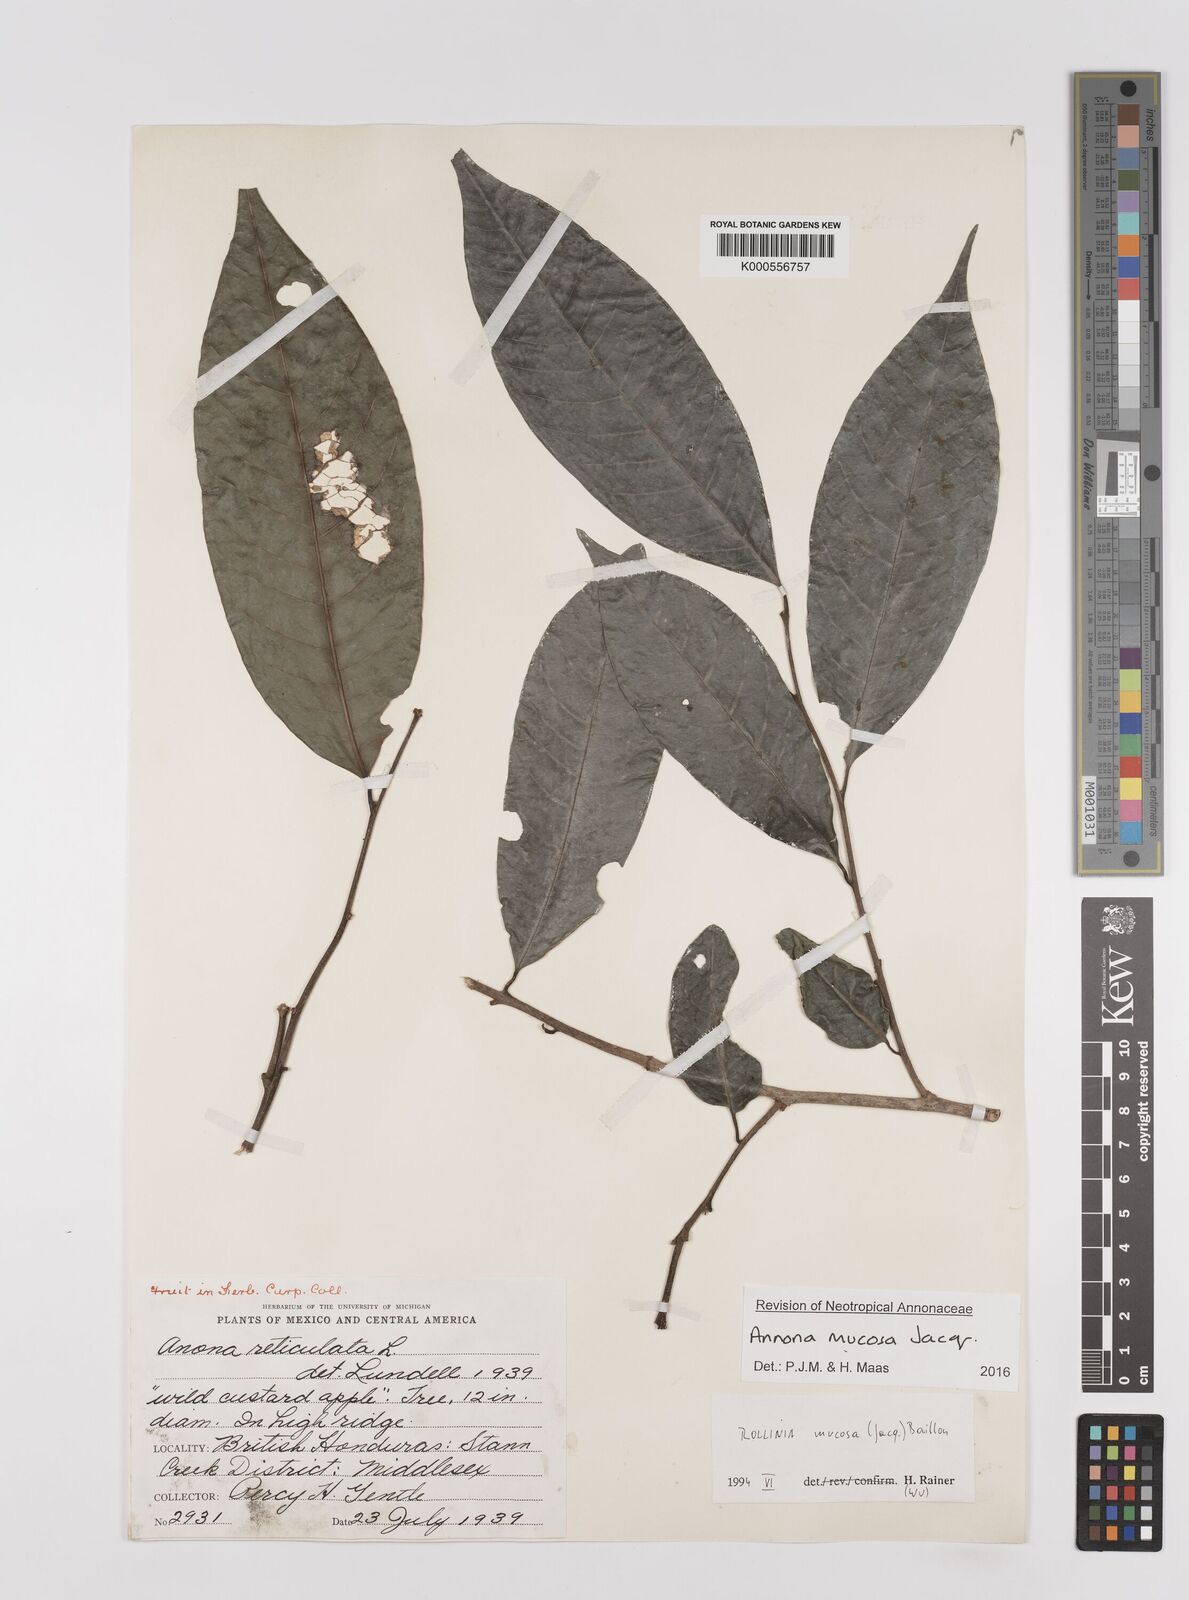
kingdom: Plantae
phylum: Tracheophyta
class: Magnoliopsida
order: Magnoliales
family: Annonaceae
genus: Annona
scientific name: Annona mucosa
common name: Sugar apple
